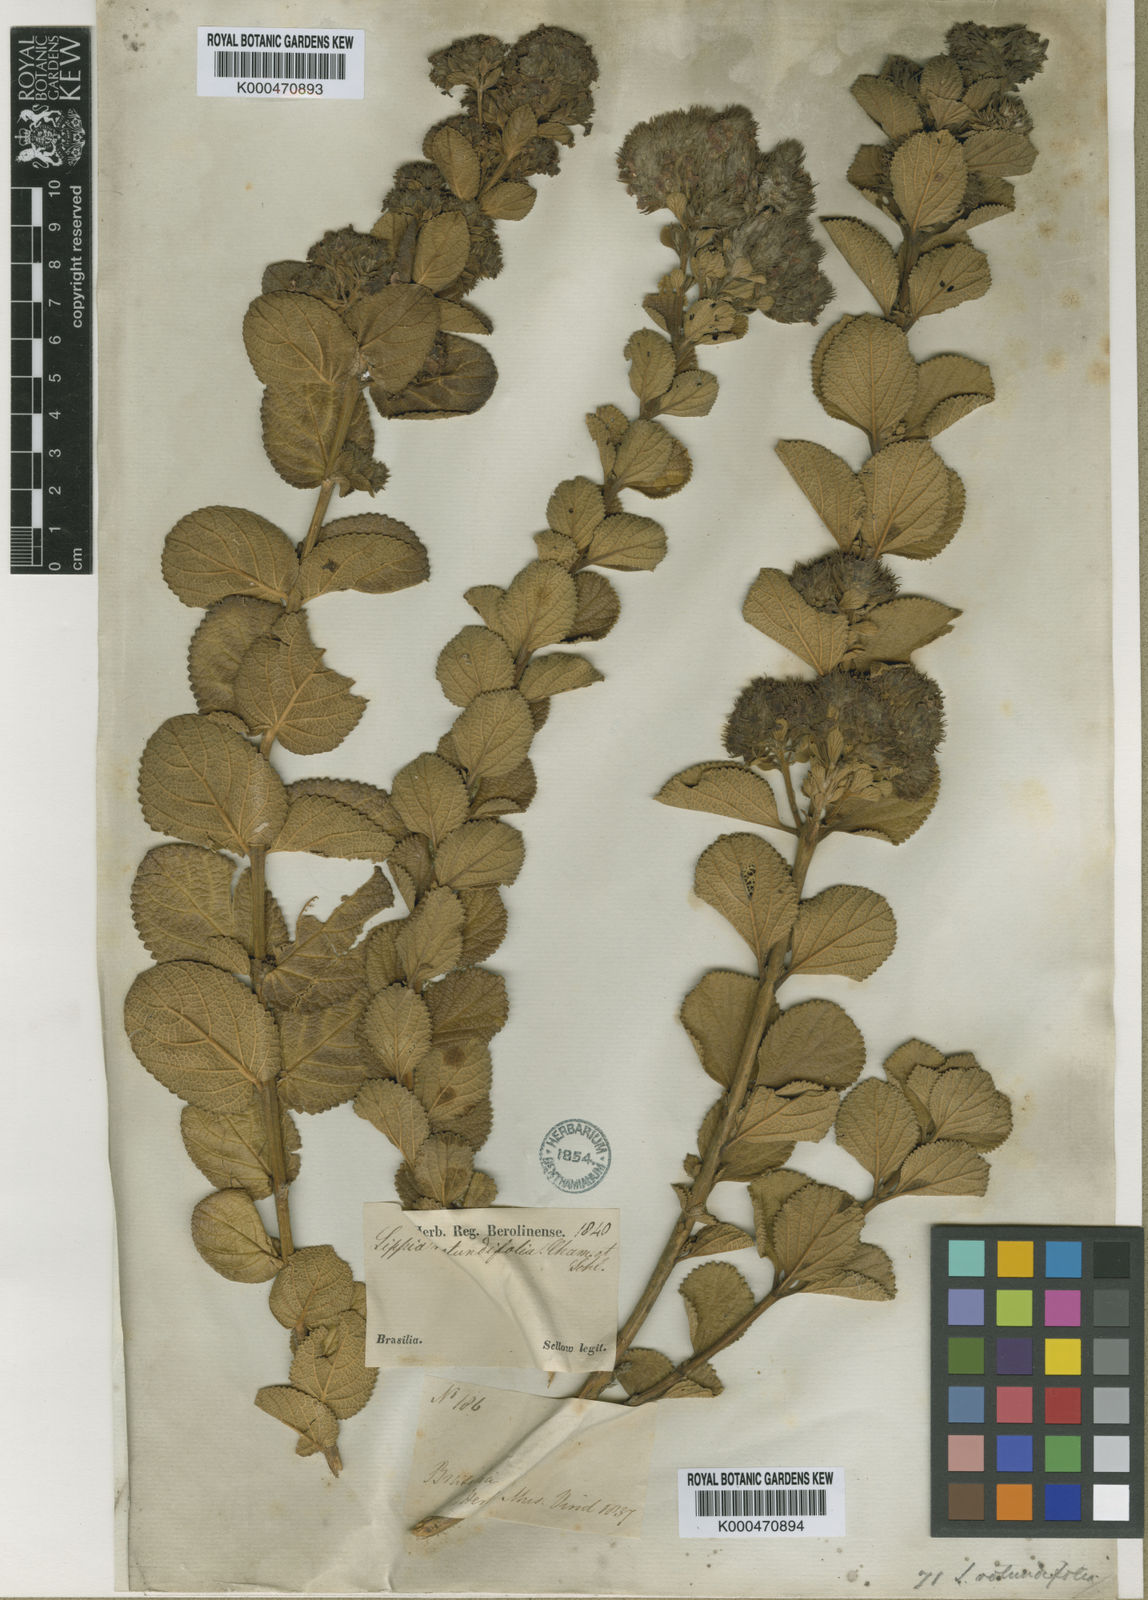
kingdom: Plantae
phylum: Tracheophyta
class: Magnoliopsida
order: Lamiales
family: Verbenaceae
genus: Lippia
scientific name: Lippia rotundifolia
